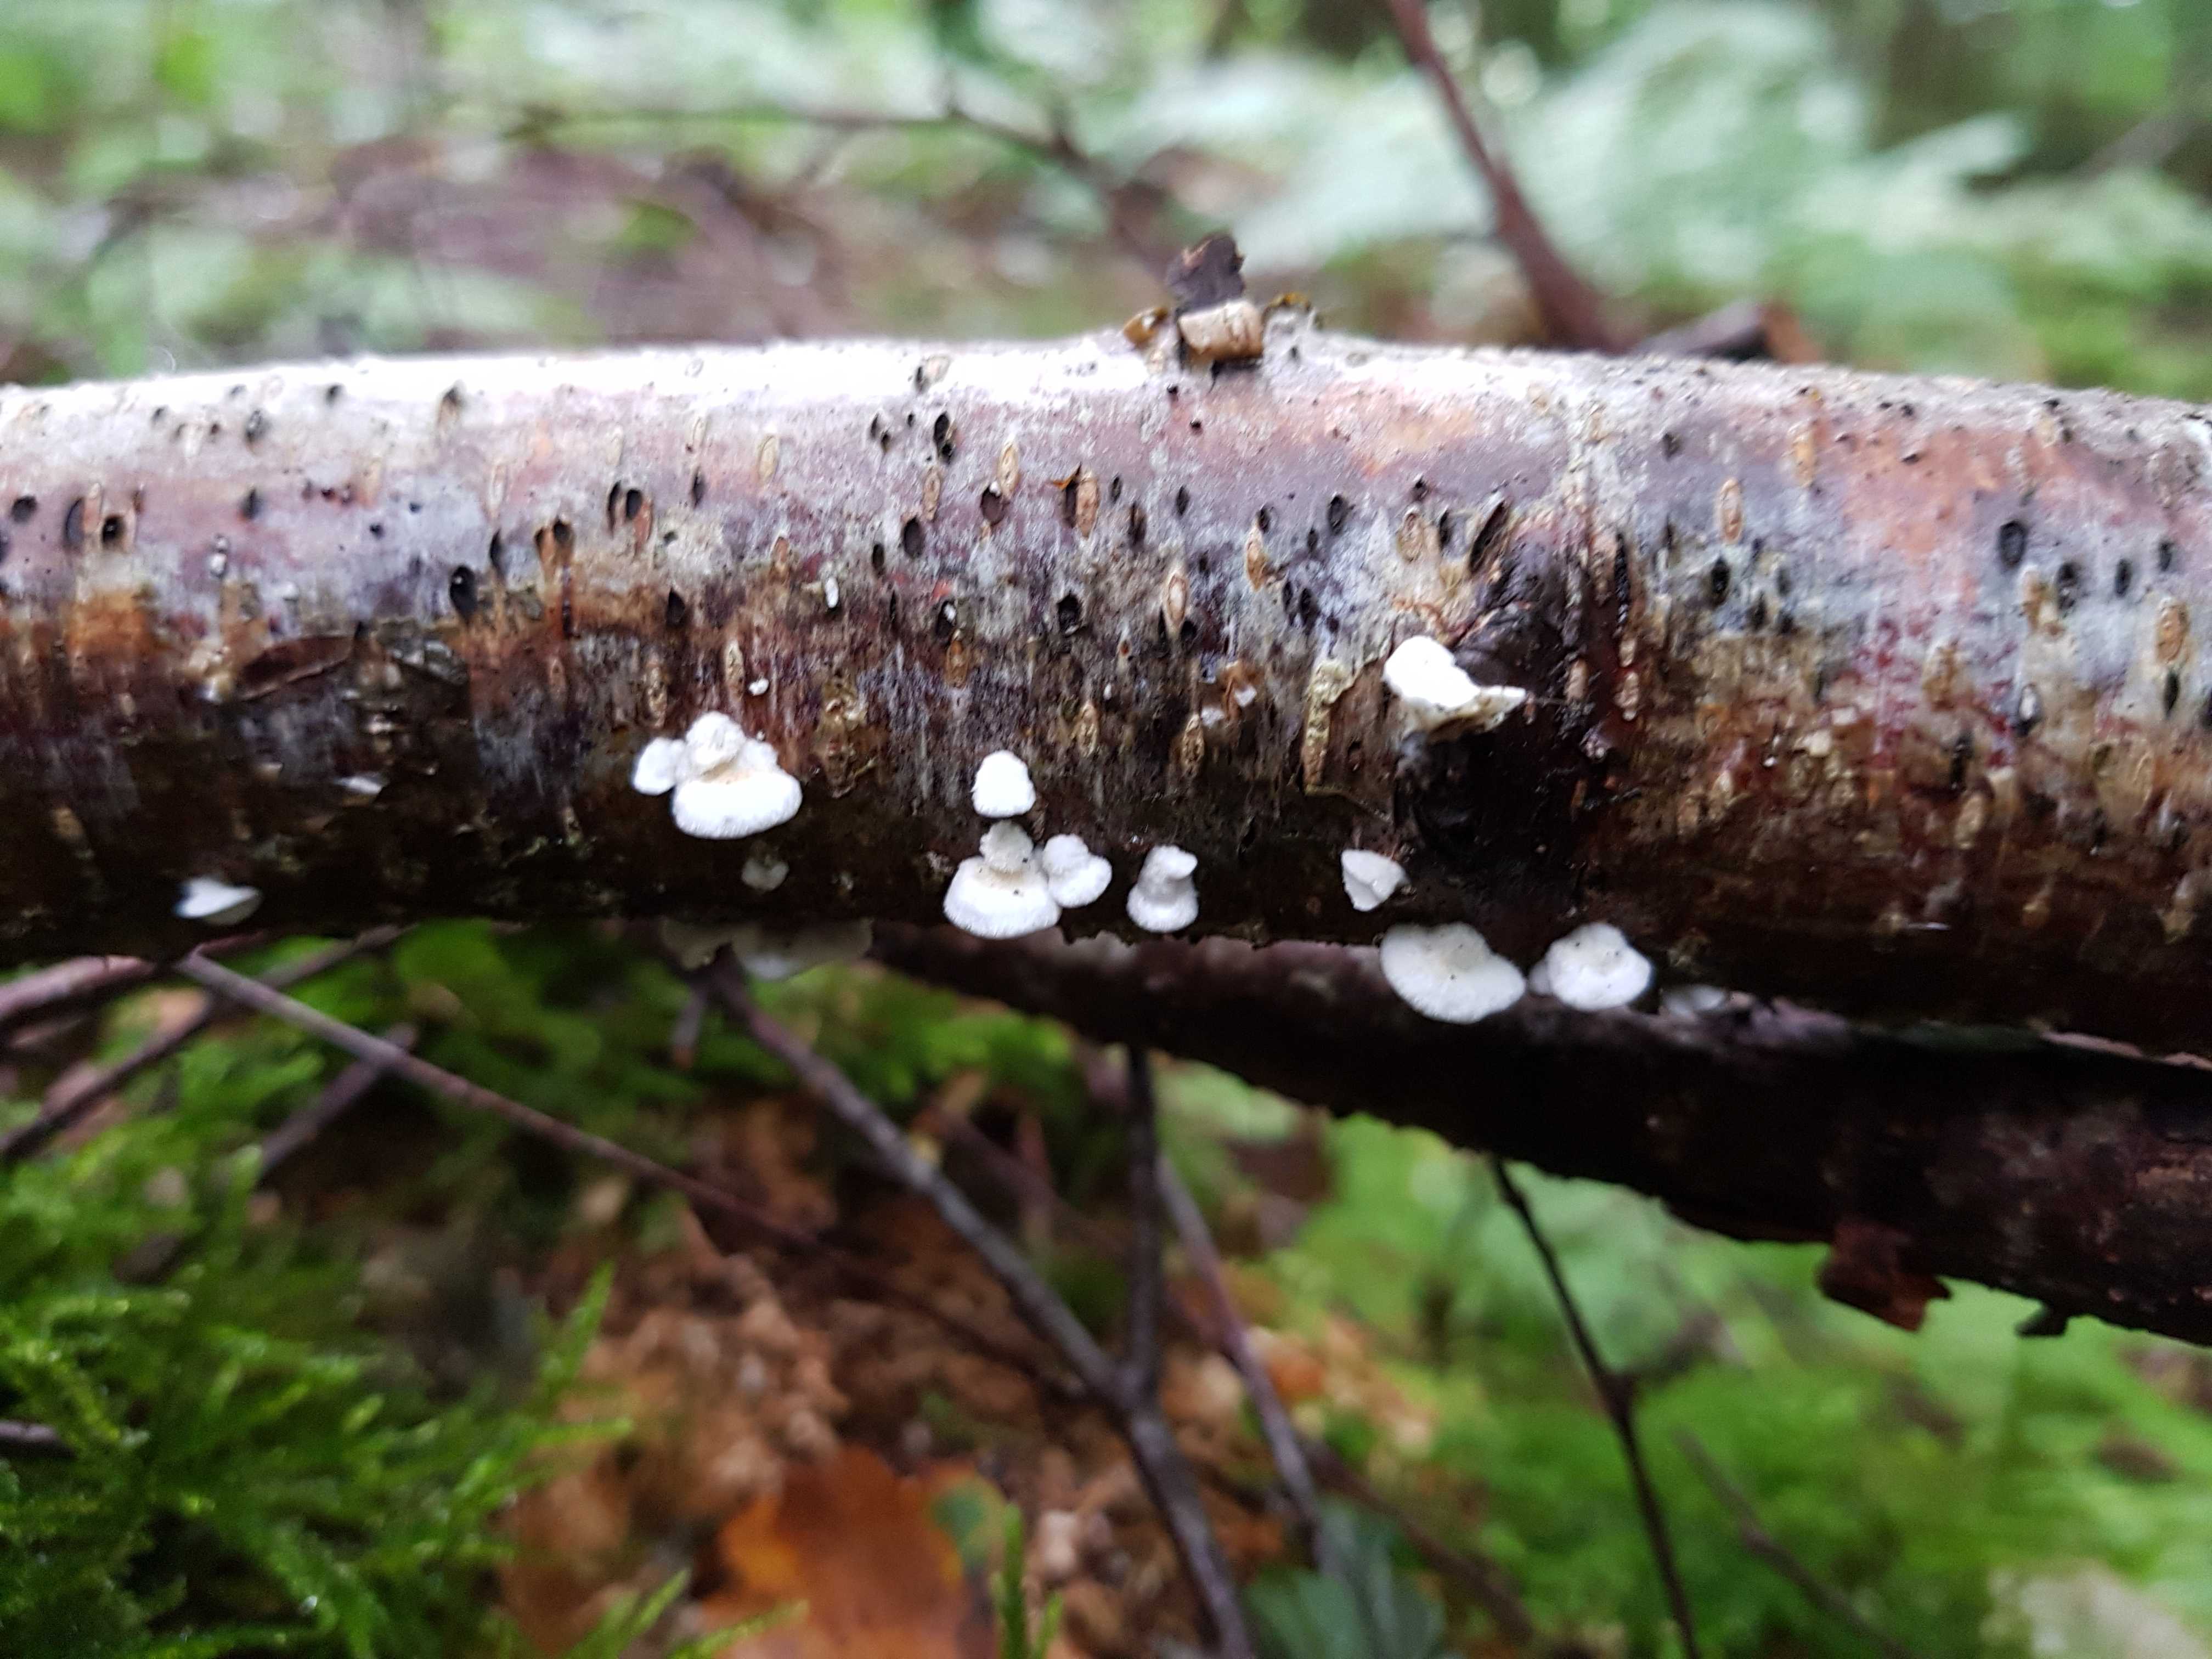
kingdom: Fungi
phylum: Basidiomycota
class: Agaricomycetes
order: Amylocorticiales
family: Amylocorticiaceae
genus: Plicaturopsis
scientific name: Plicaturopsis crispa
